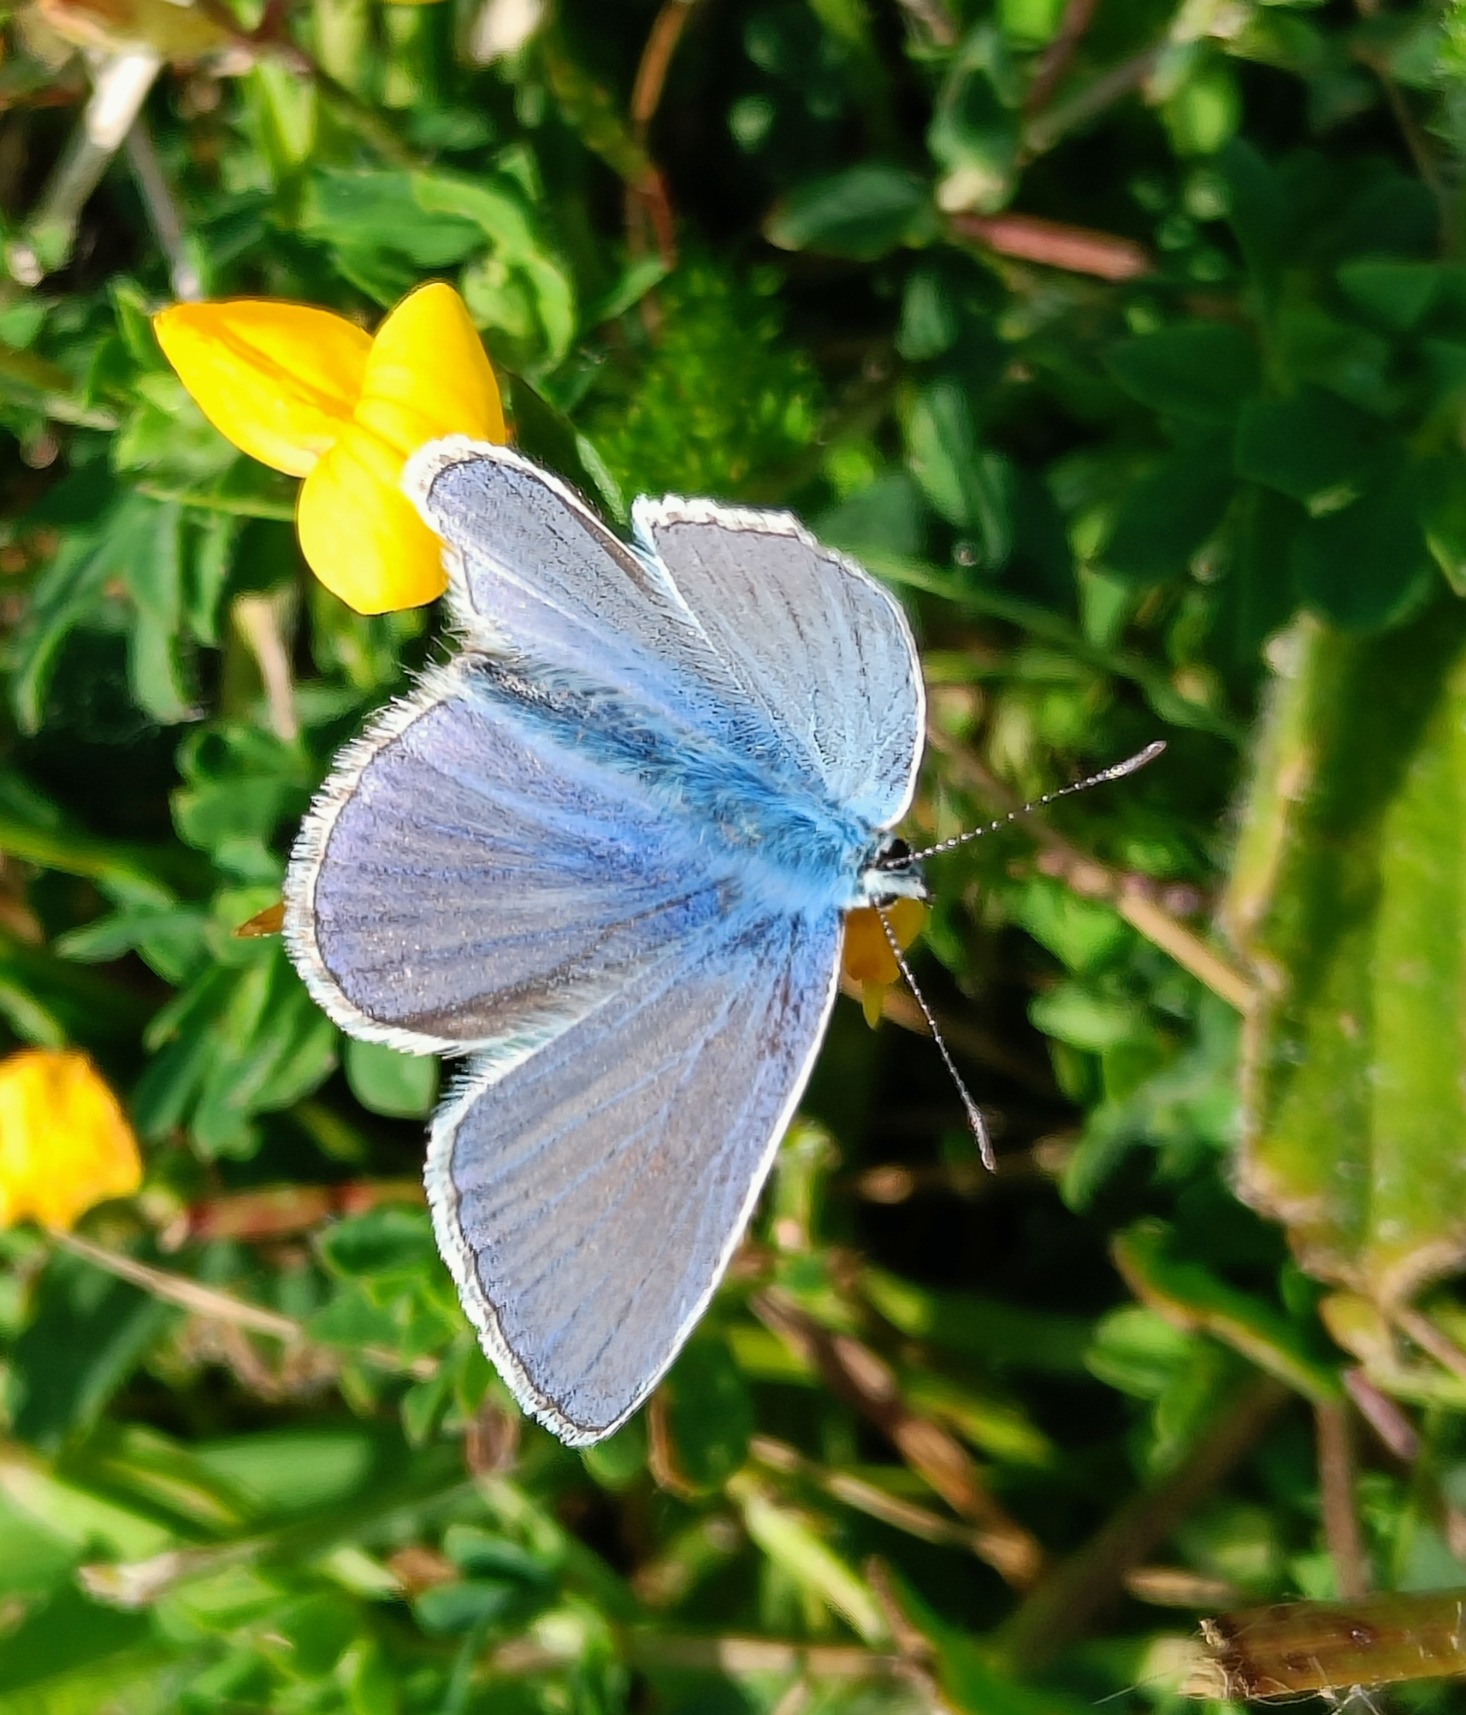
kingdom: Animalia
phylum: Arthropoda
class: Insecta
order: Lepidoptera
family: Lycaenidae
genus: Polyommatus
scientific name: Polyommatus icarus
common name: Almindelig blåfugl
